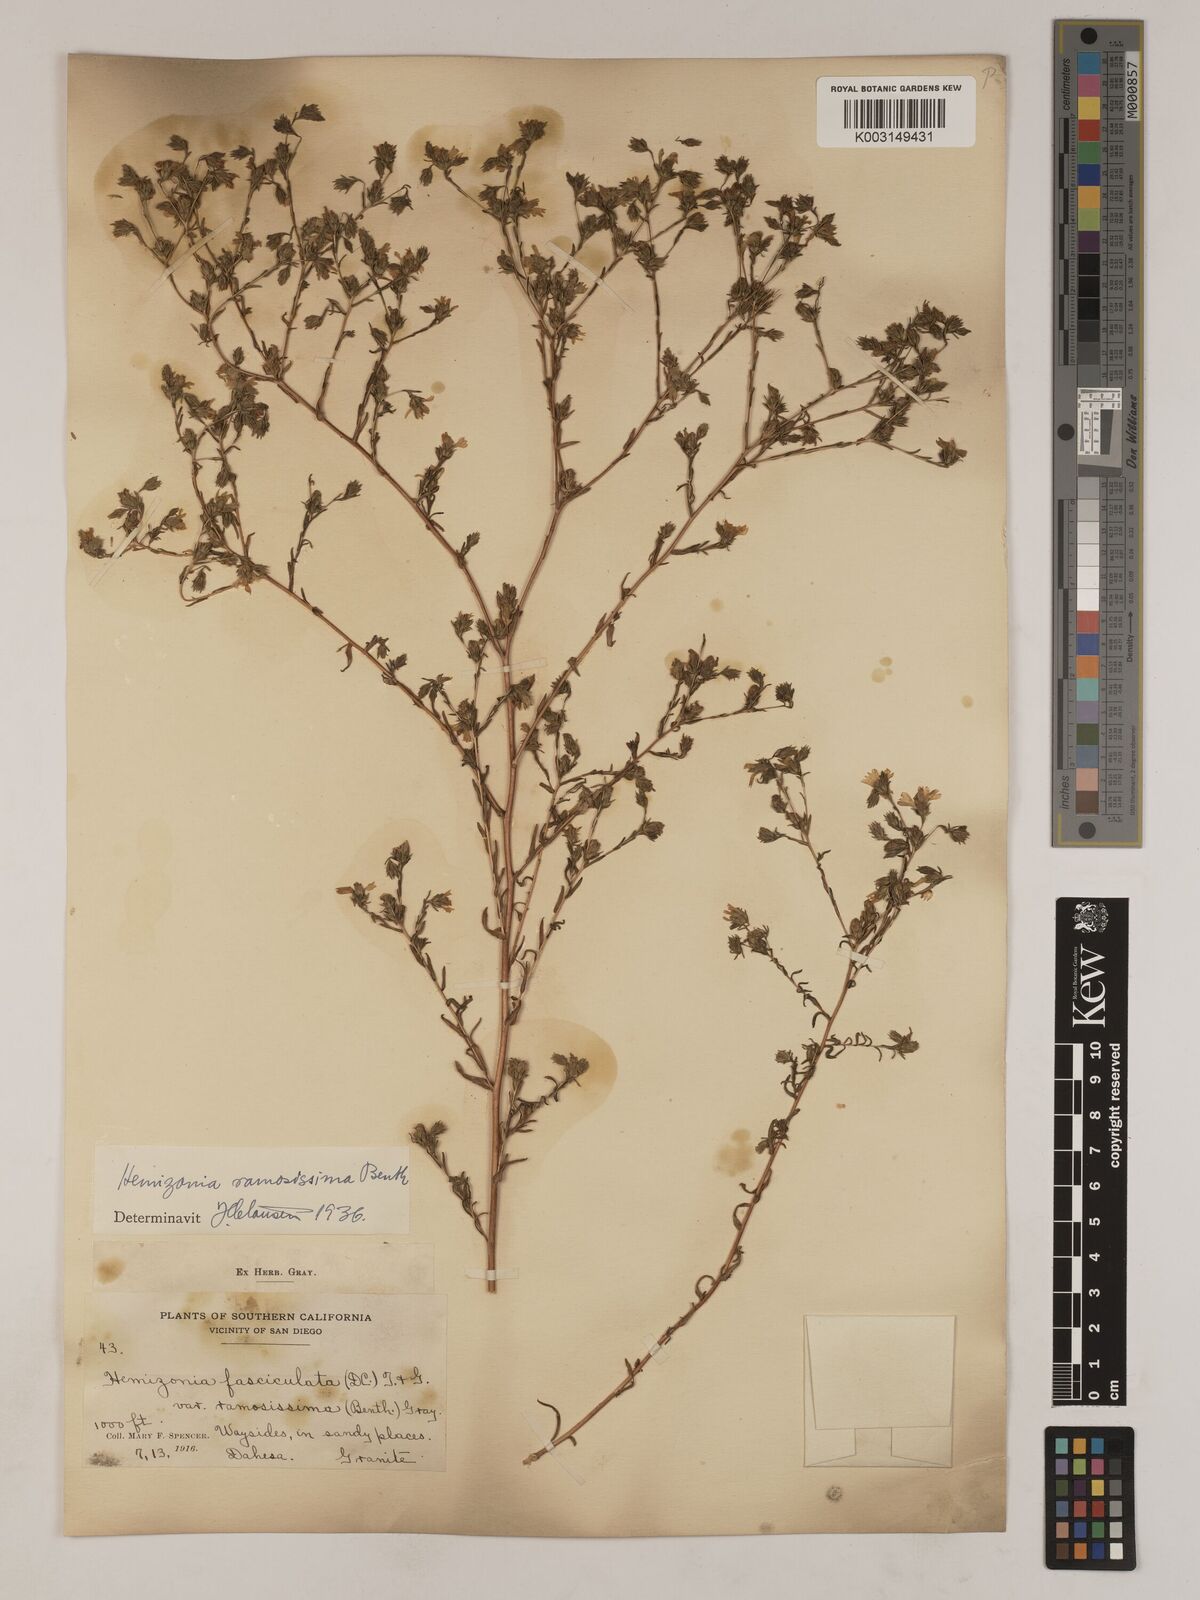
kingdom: Plantae
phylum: Tracheophyta
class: Magnoliopsida
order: Asterales
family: Asteraceae
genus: Deinandra
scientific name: Deinandra fasciculata
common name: Clustered tarweed
